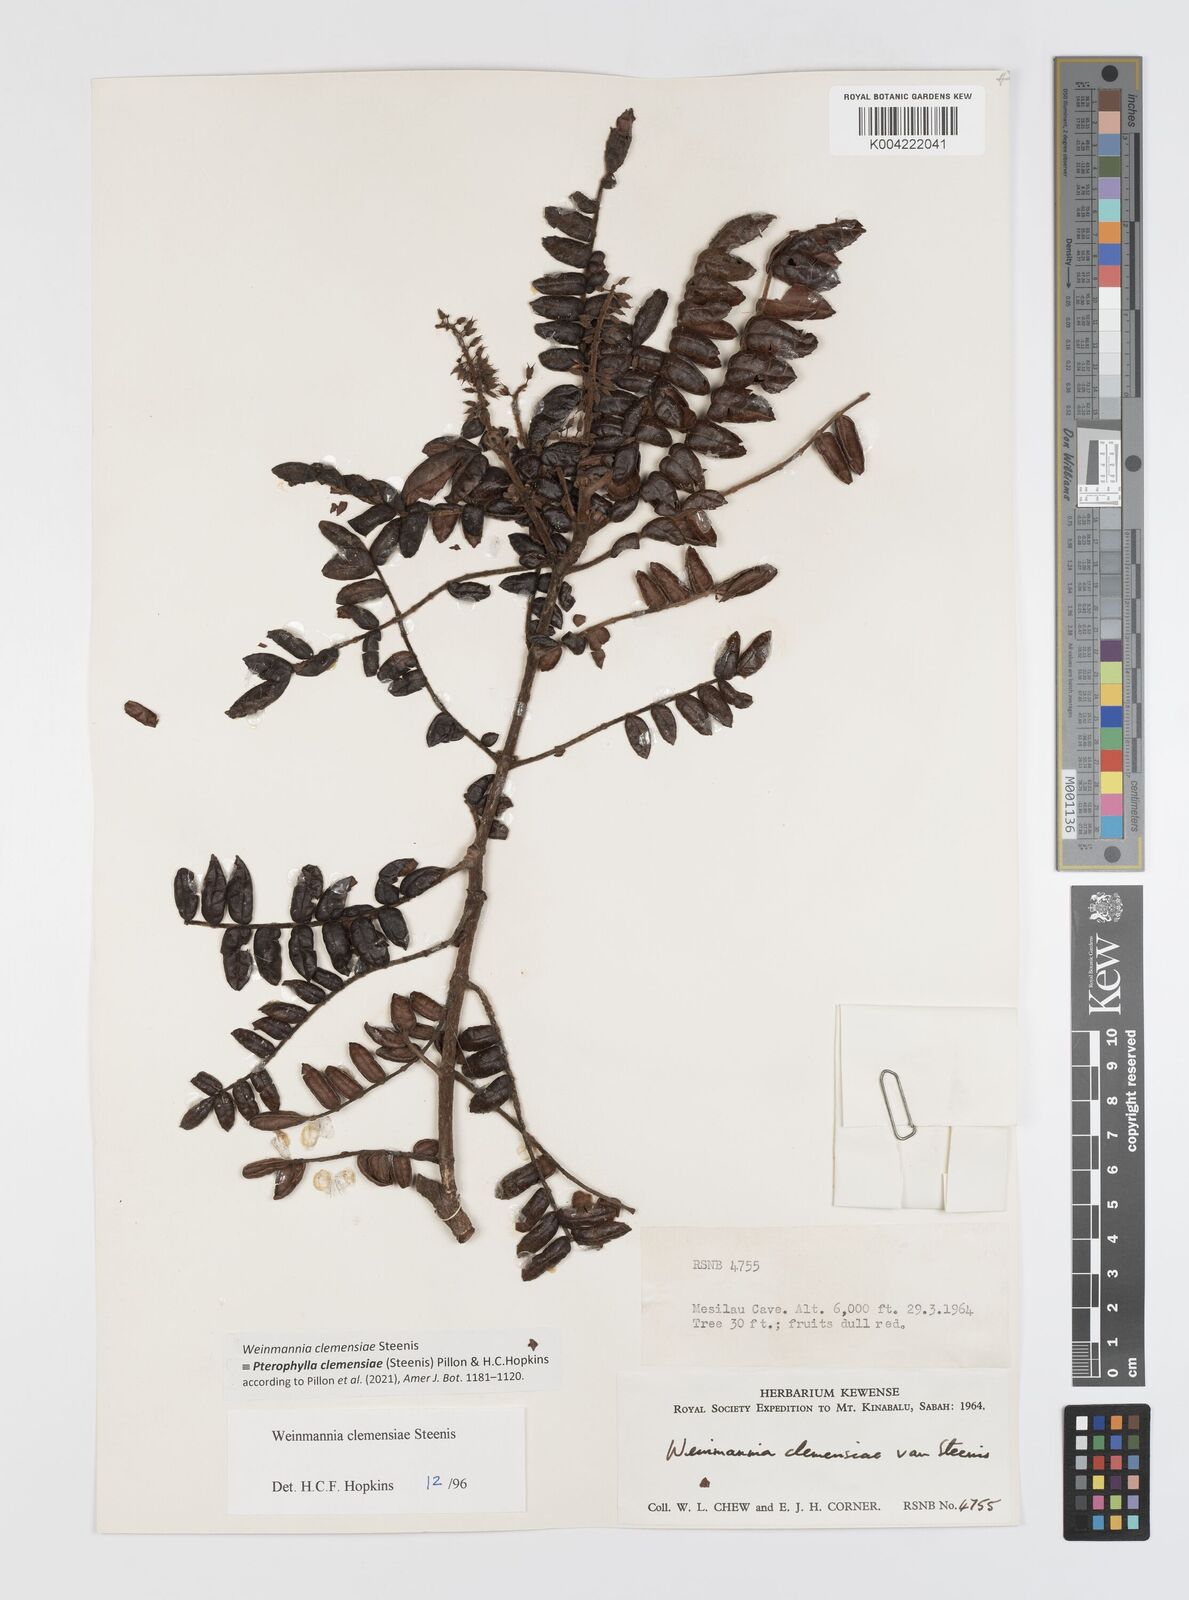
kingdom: Plantae
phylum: Tracheophyta
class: Magnoliopsida
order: Oxalidales
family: Cunoniaceae
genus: Pterophylla
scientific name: Pterophylla clemensiae
